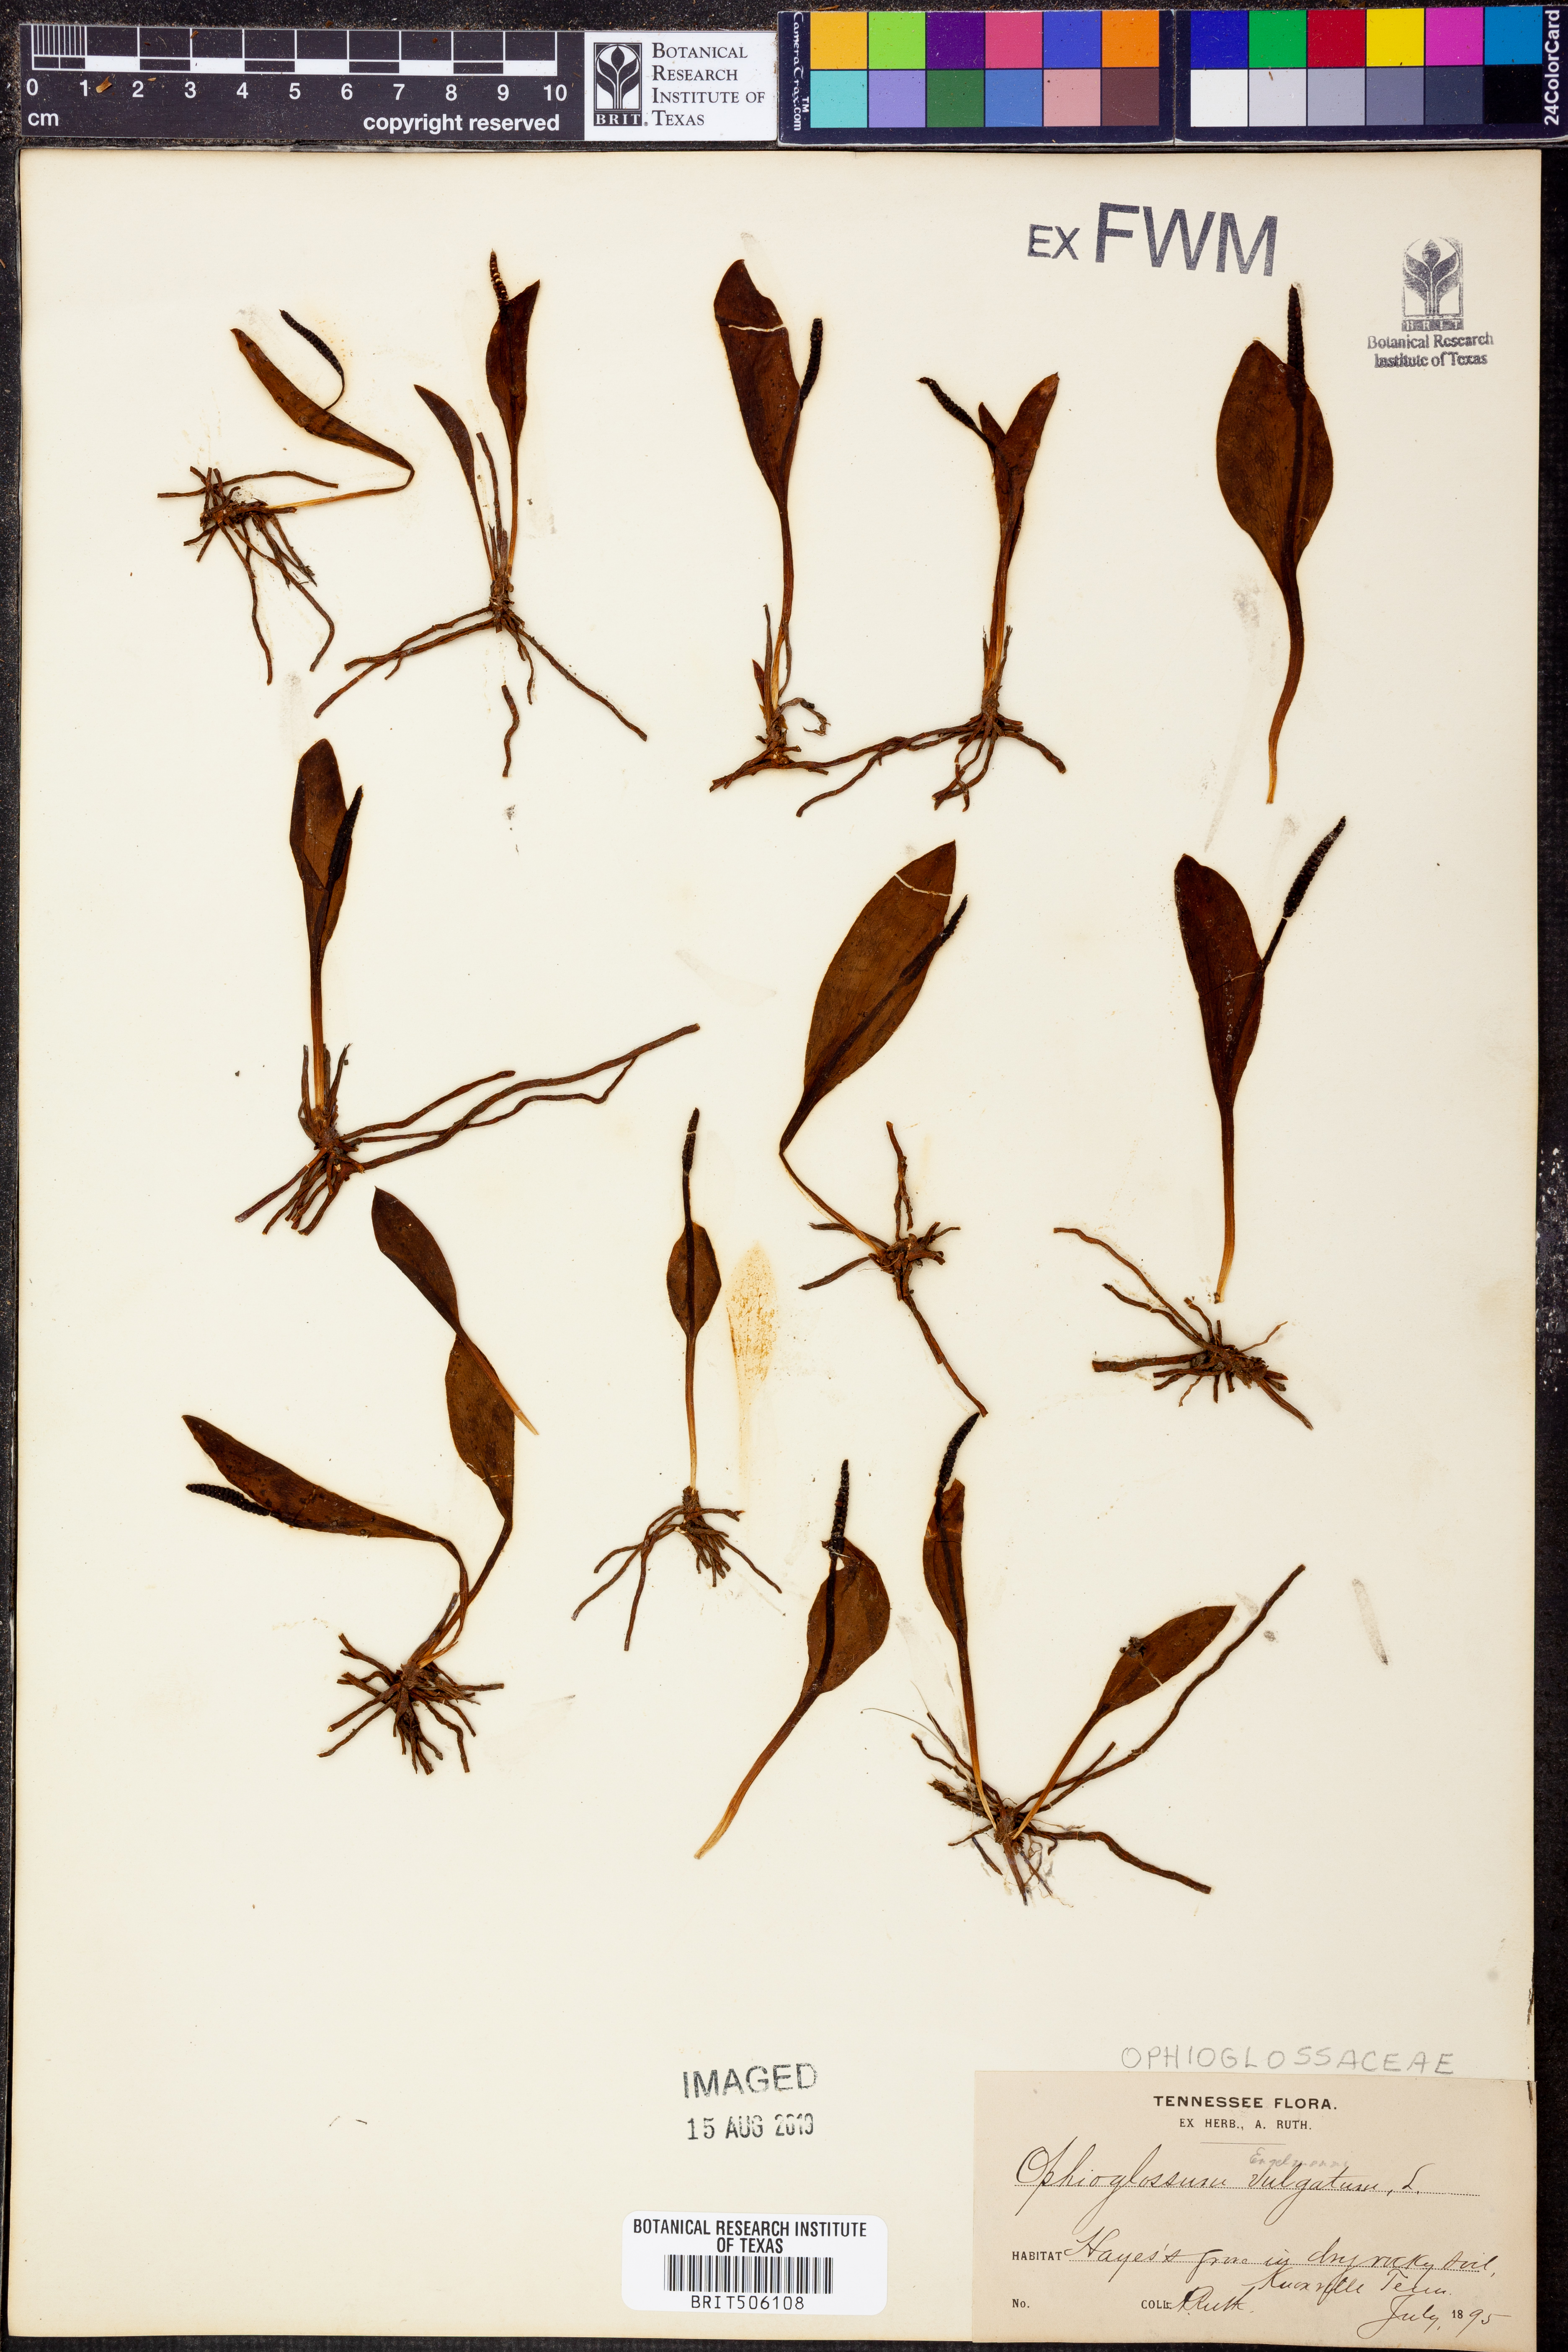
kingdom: Plantae
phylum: Tracheophyta
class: Polypodiopsida
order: Ophioglossales
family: Ophioglossaceae
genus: Ophioglossum
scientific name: Ophioglossum vulgatum
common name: Adder's-tongue
